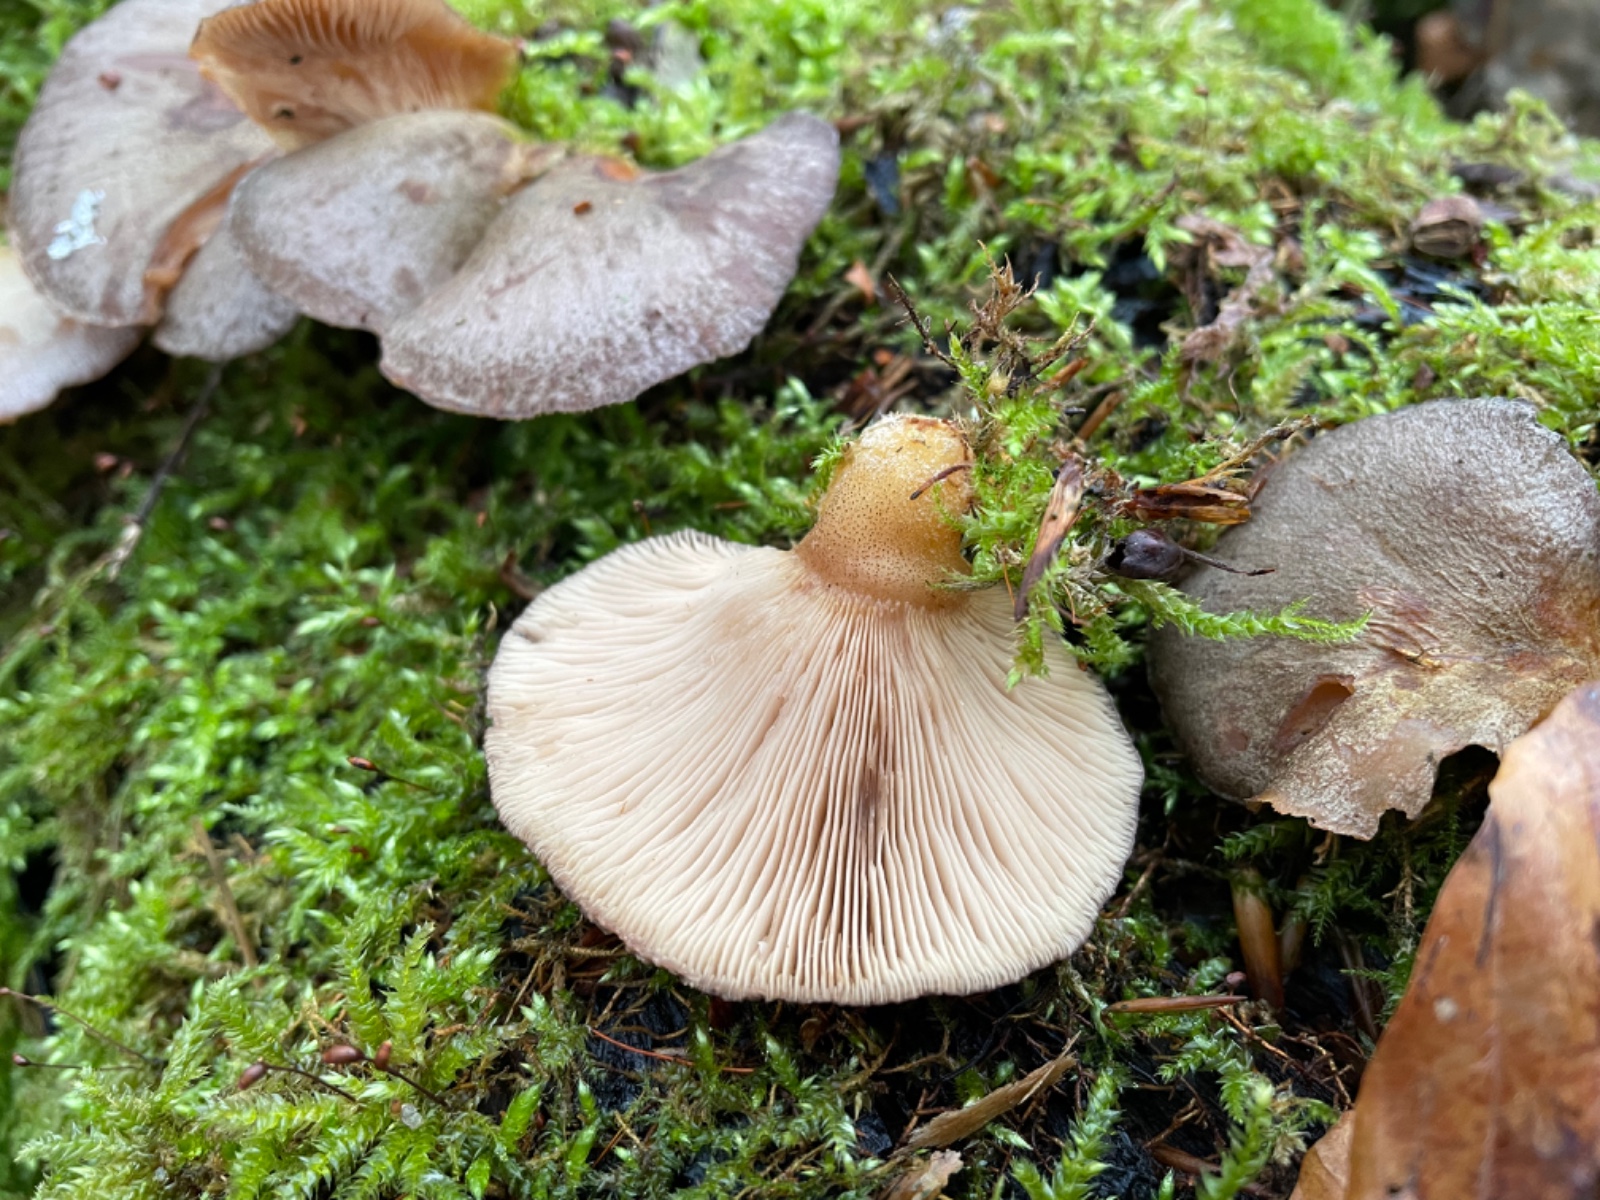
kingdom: Fungi
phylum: Basidiomycota
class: Agaricomycetes
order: Agaricales
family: Sarcomyxaceae
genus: Sarcomyxa
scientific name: Sarcomyxa serotina
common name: gummihat
